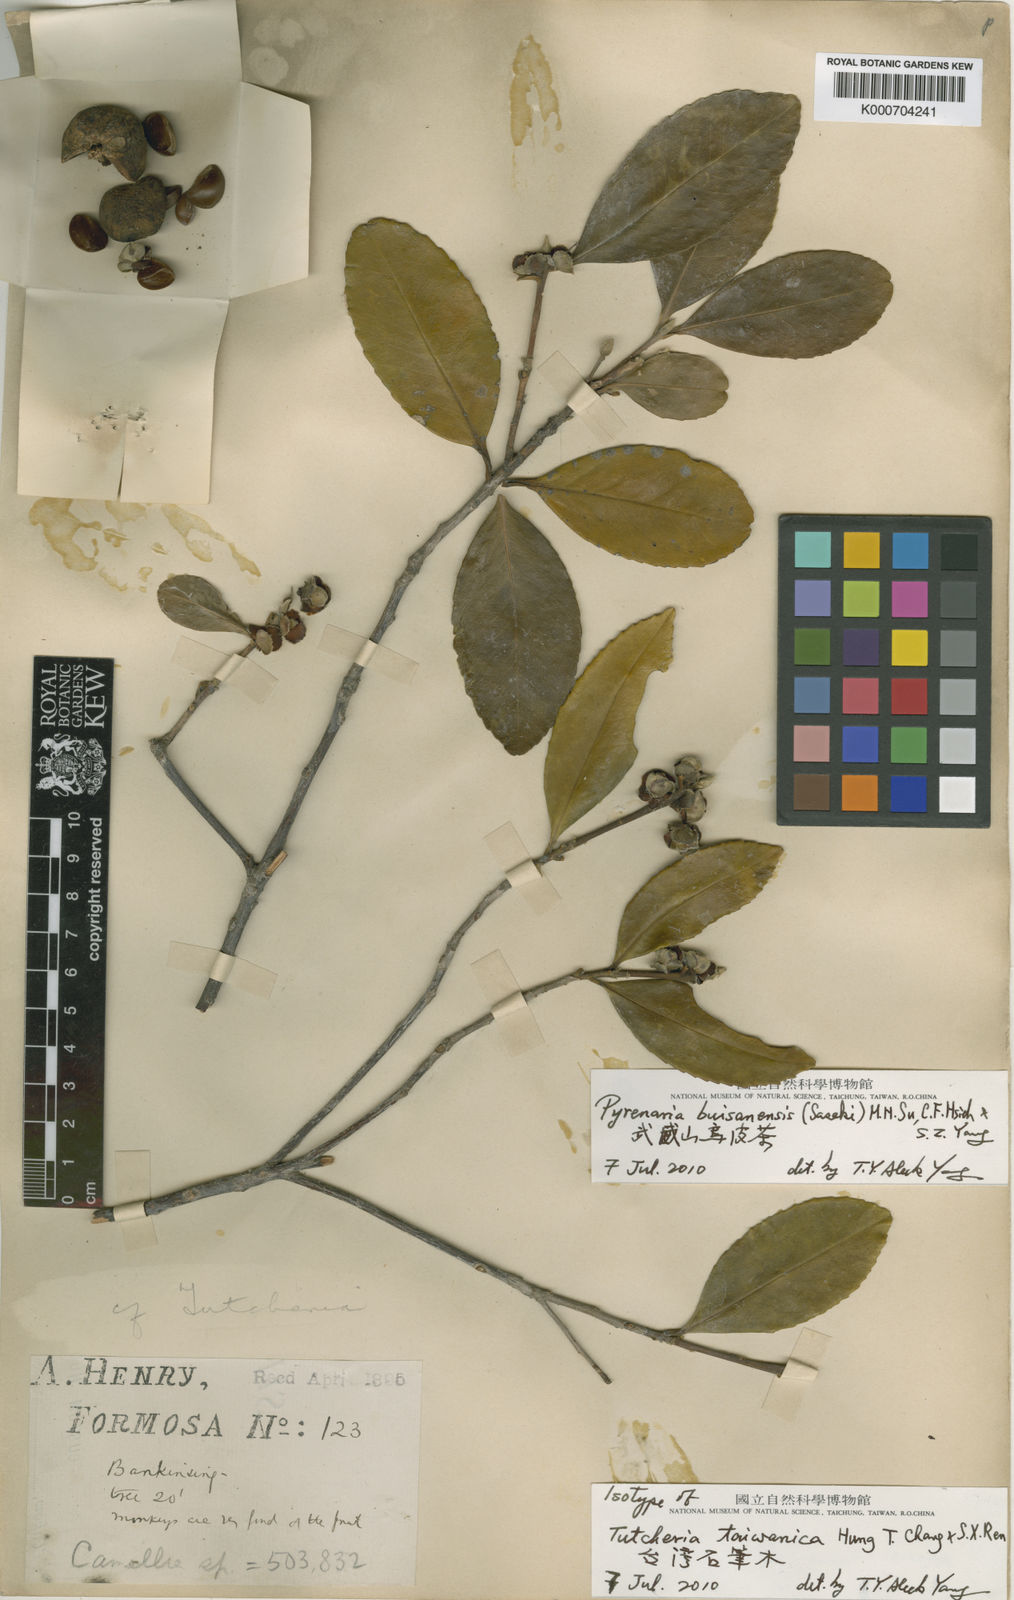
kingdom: Plantae
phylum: Tracheophyta
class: Magnoliopsida
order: Ericales
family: Theaceae
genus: Pyrenaria
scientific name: Pyrenaria microcarpa
